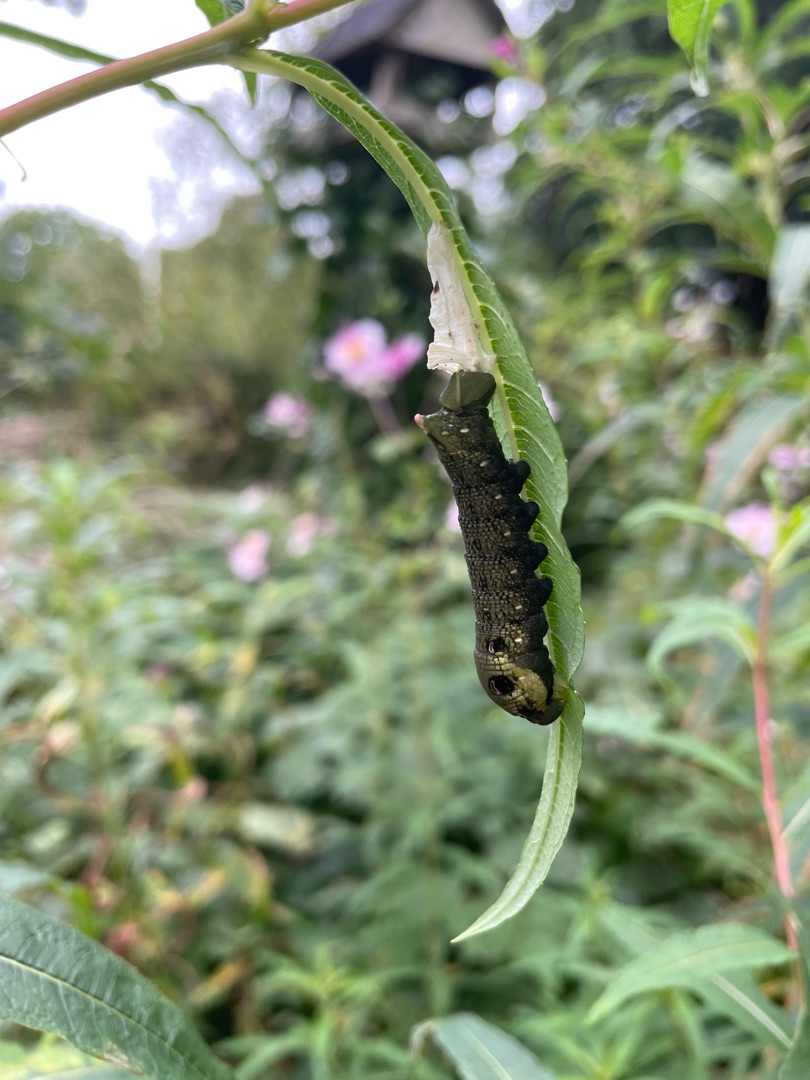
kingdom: Animalia
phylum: Arthropoda
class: Insecta
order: Lepidoptera
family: Sphingidae
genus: Deilephila
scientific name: Deilephila elpenor
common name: Dueurtsværmer
